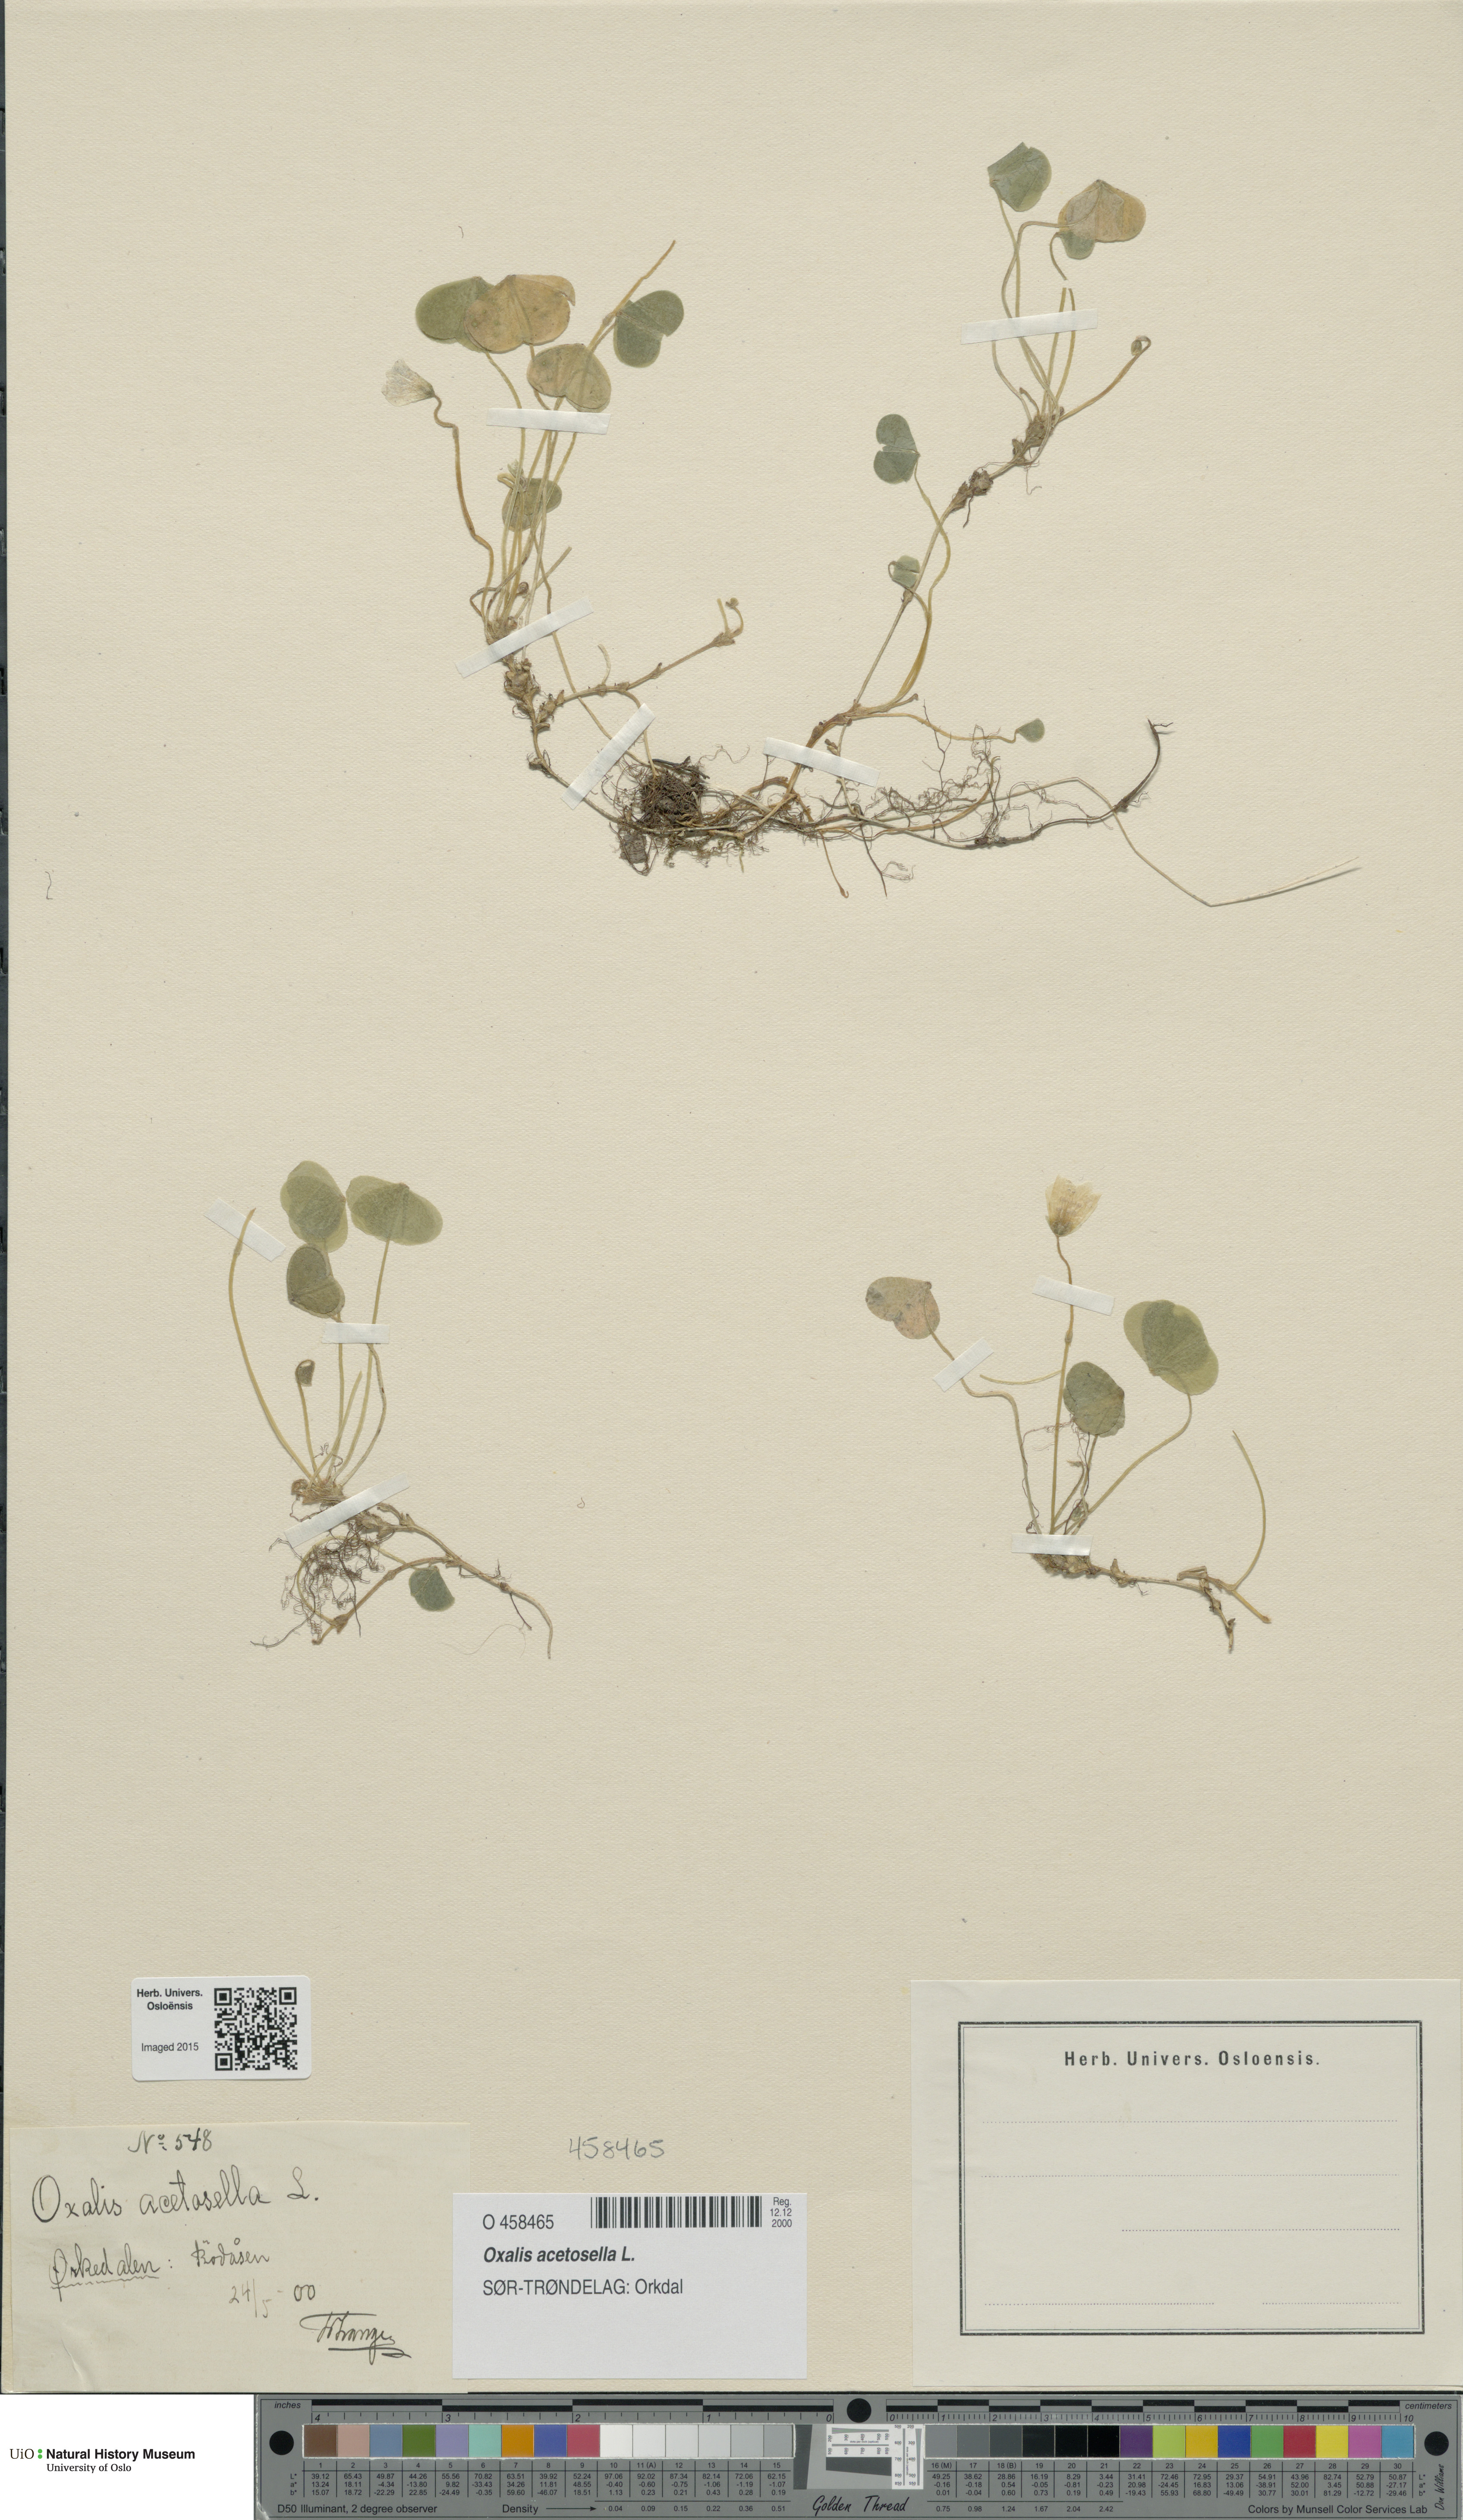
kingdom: Plantae
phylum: Tracheophyta
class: Magnoliopsida
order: Oxalidales
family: Oxalidaceae
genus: Oxalis
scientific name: Oxalis acetosella
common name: Wood-sorrel
